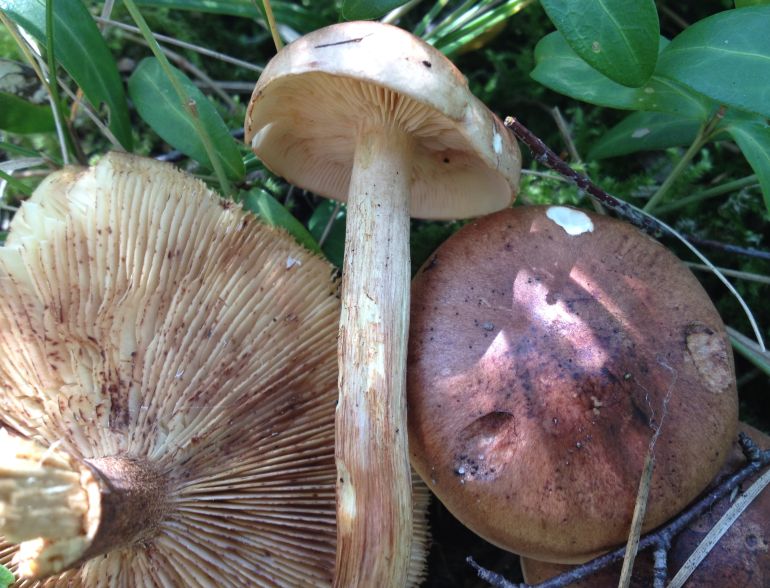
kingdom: Fungi
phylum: Basidiomycota
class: Agaricomycetes
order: Agaricales
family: Tricholomataceae
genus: Tricholoma
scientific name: Tricholoma fulvum
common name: birke-ridderhat
